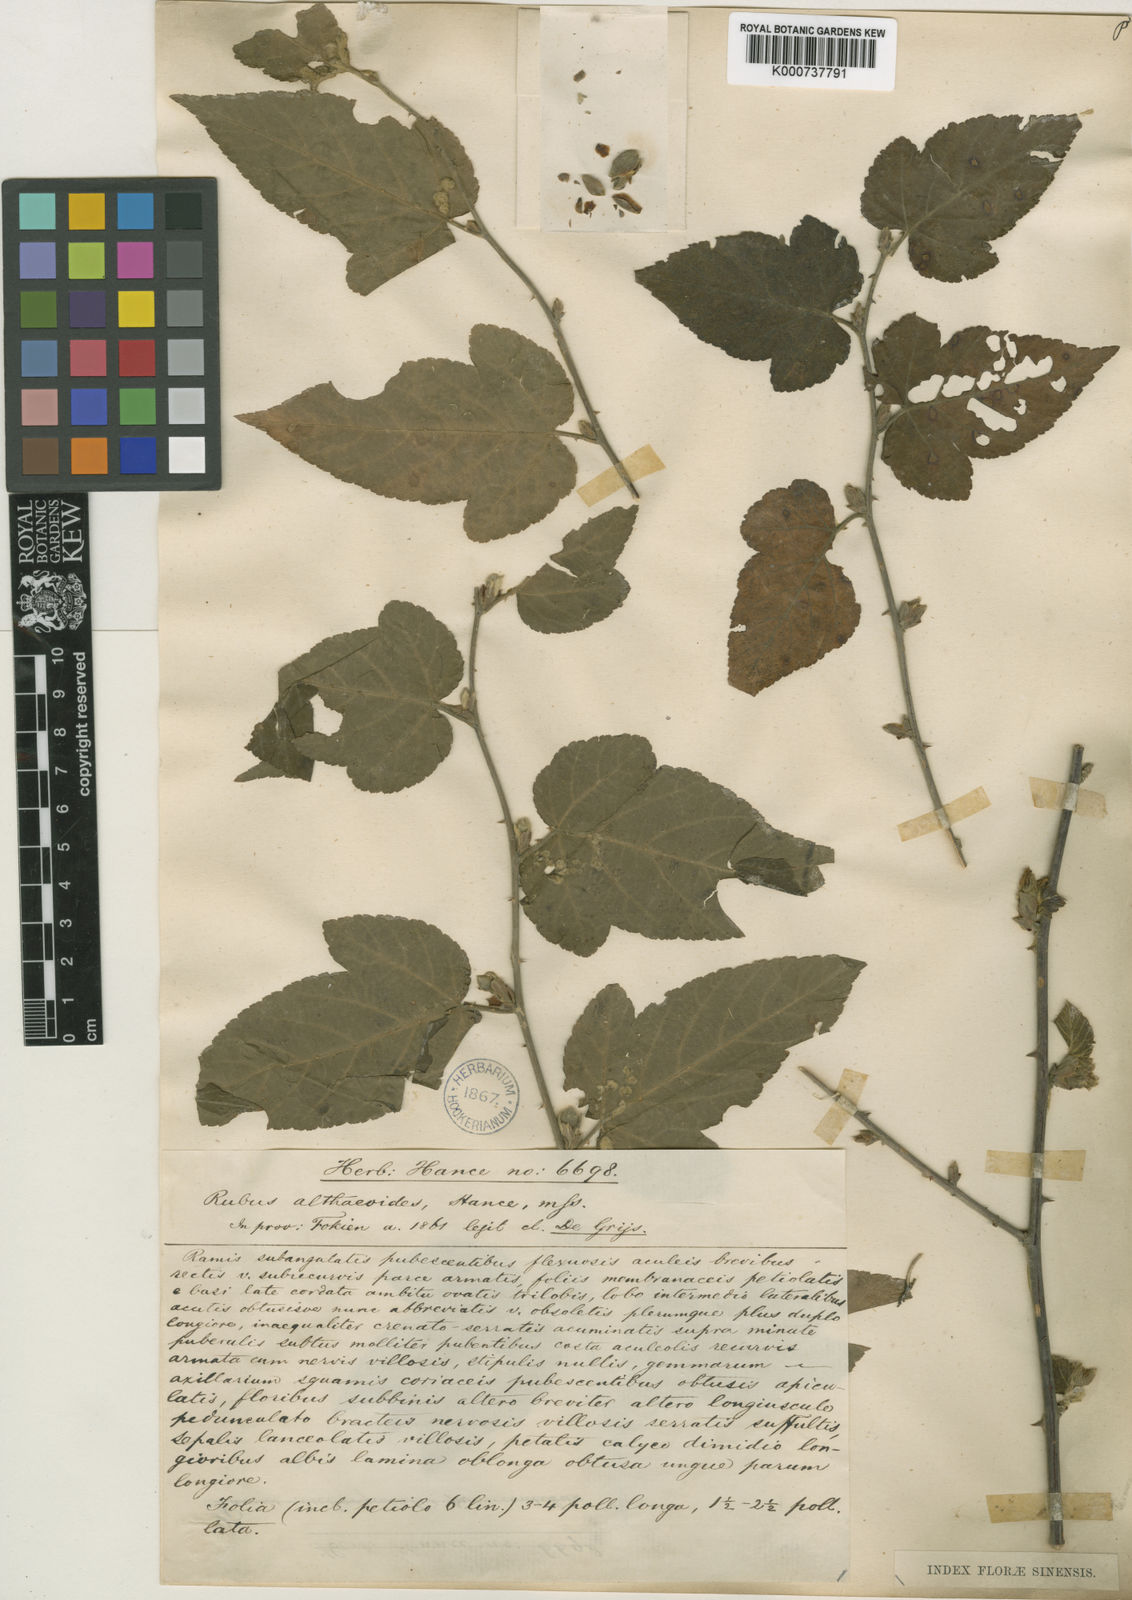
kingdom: Plantae
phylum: Tracheophyta
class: Magnoliopsida
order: Rosales
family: Rosaceae
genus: Rubus
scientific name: Rubus corchorifolius
